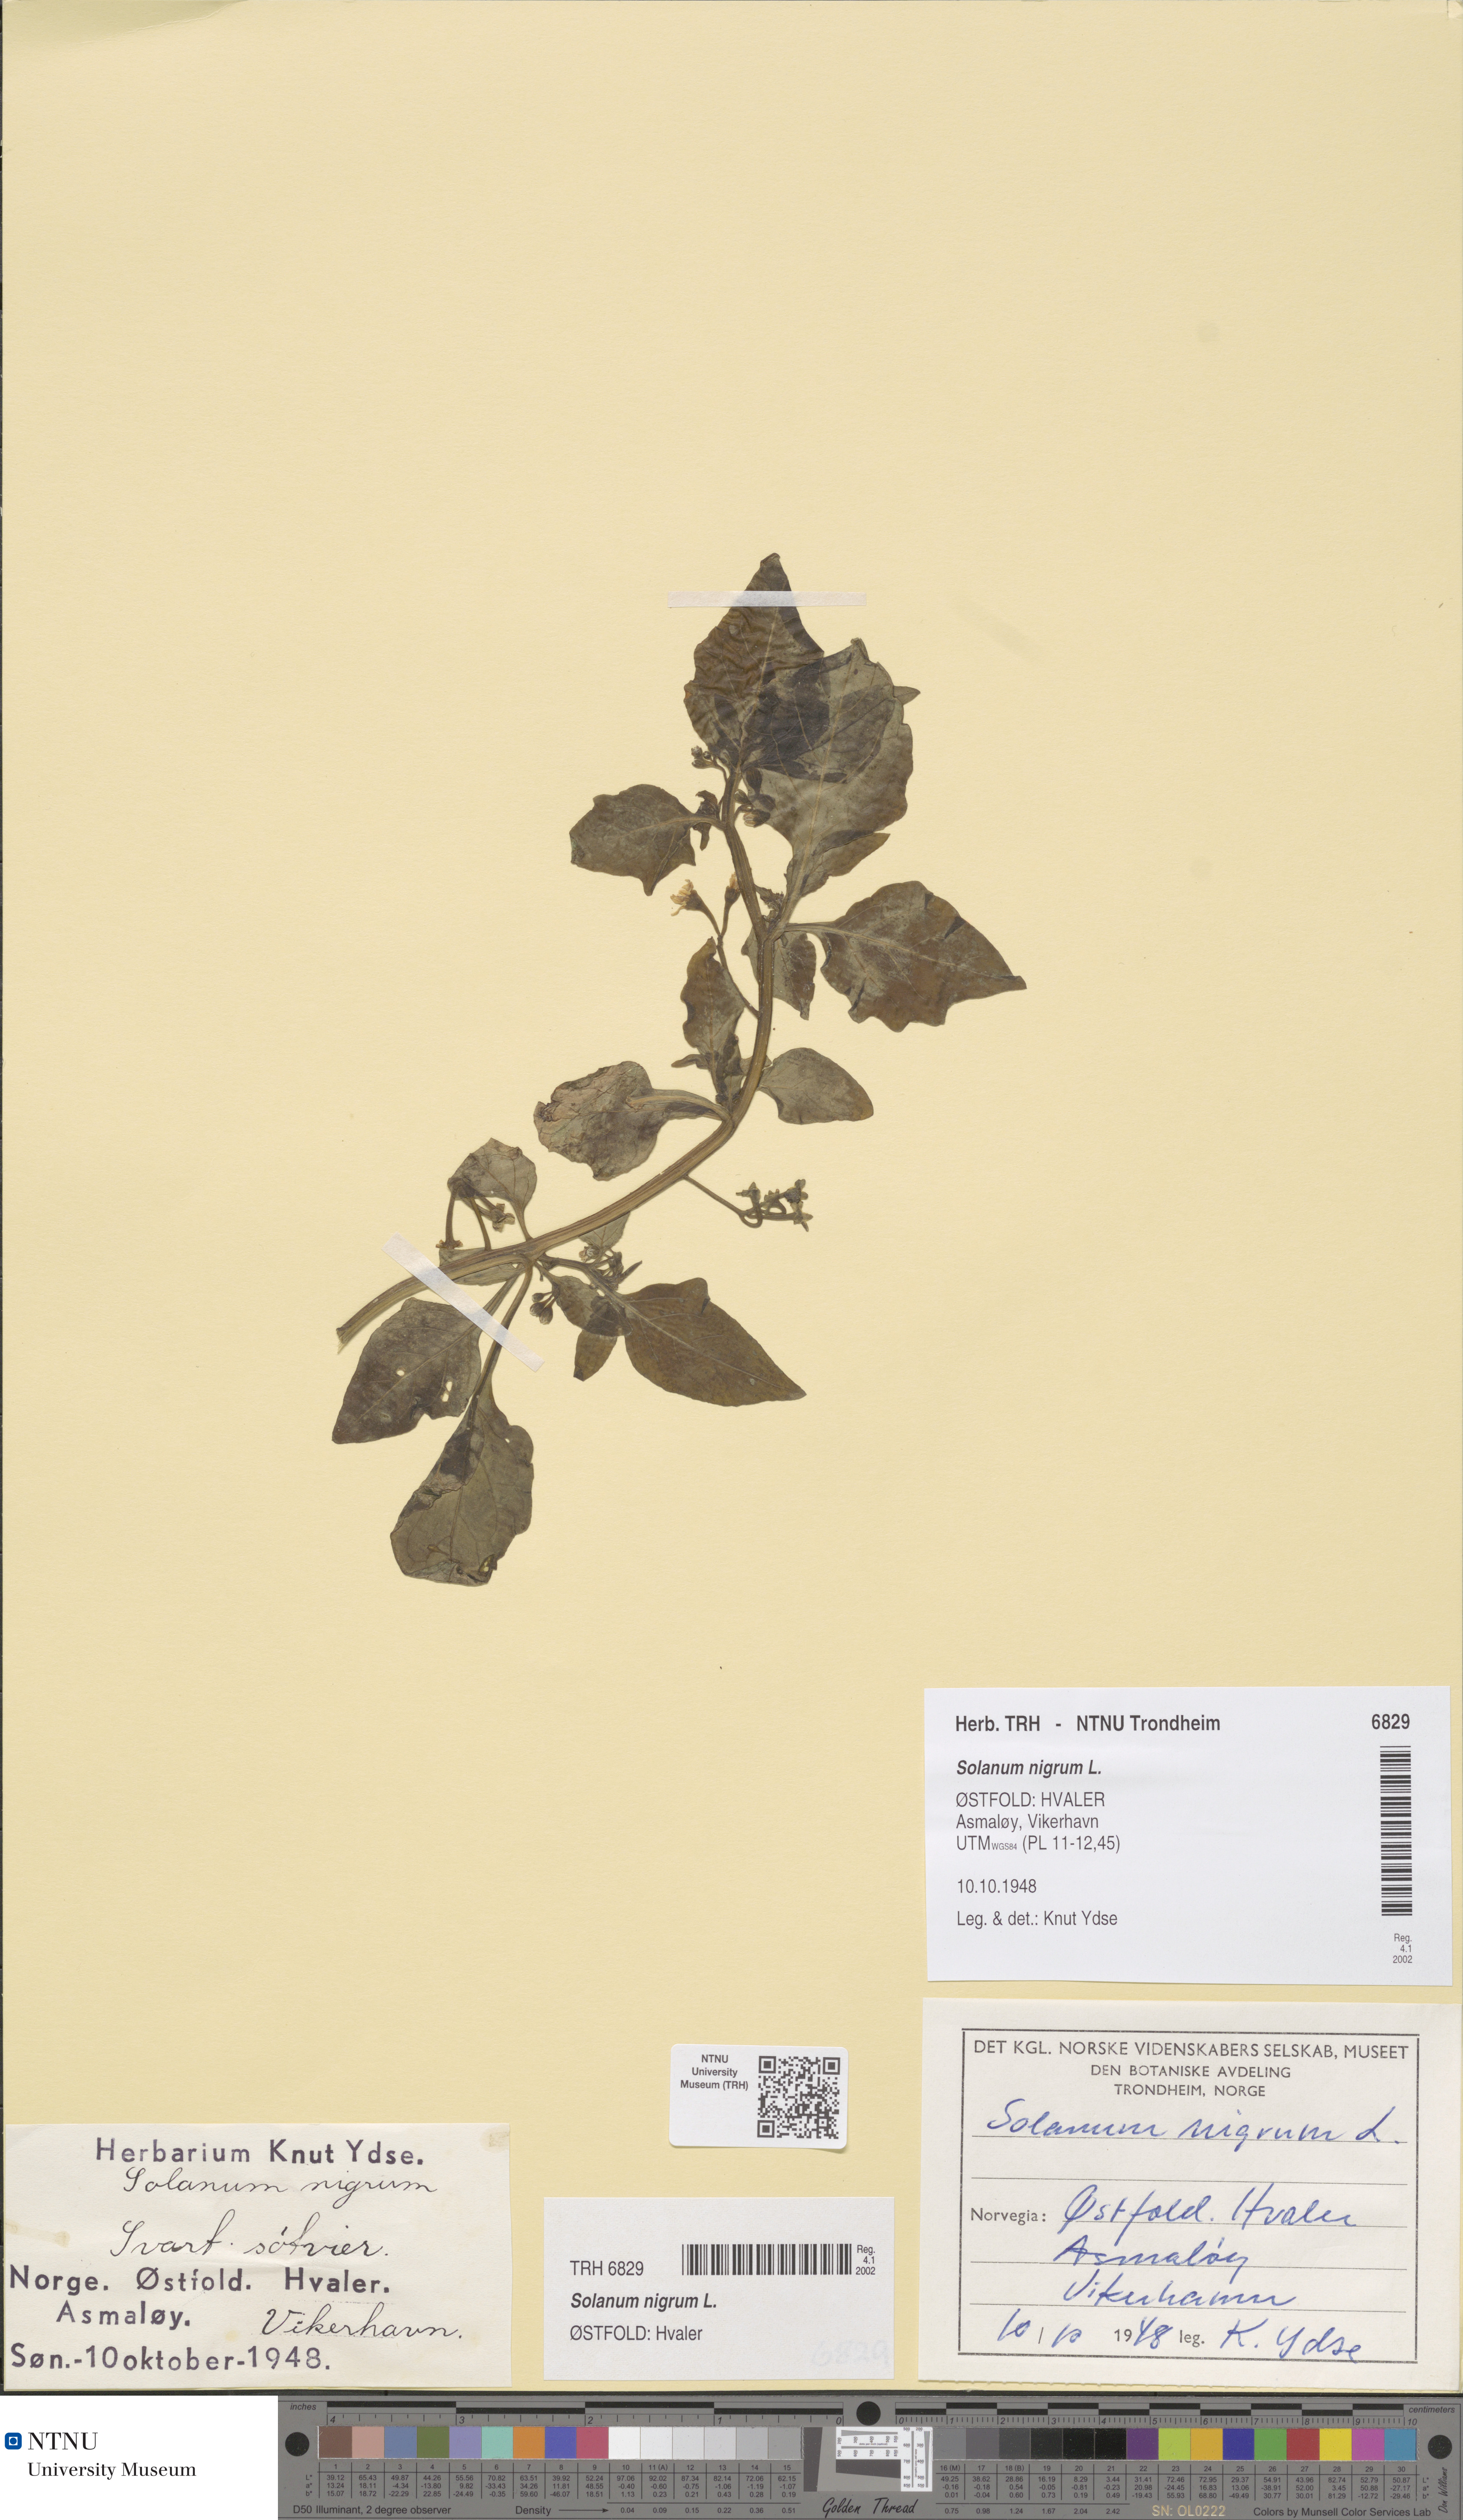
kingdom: Plantae
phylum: Tracheophyta
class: Magnoliopsida
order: Solanales
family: Solanaceae
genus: Solanum
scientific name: Solanum nigrum
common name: Black nightshade
